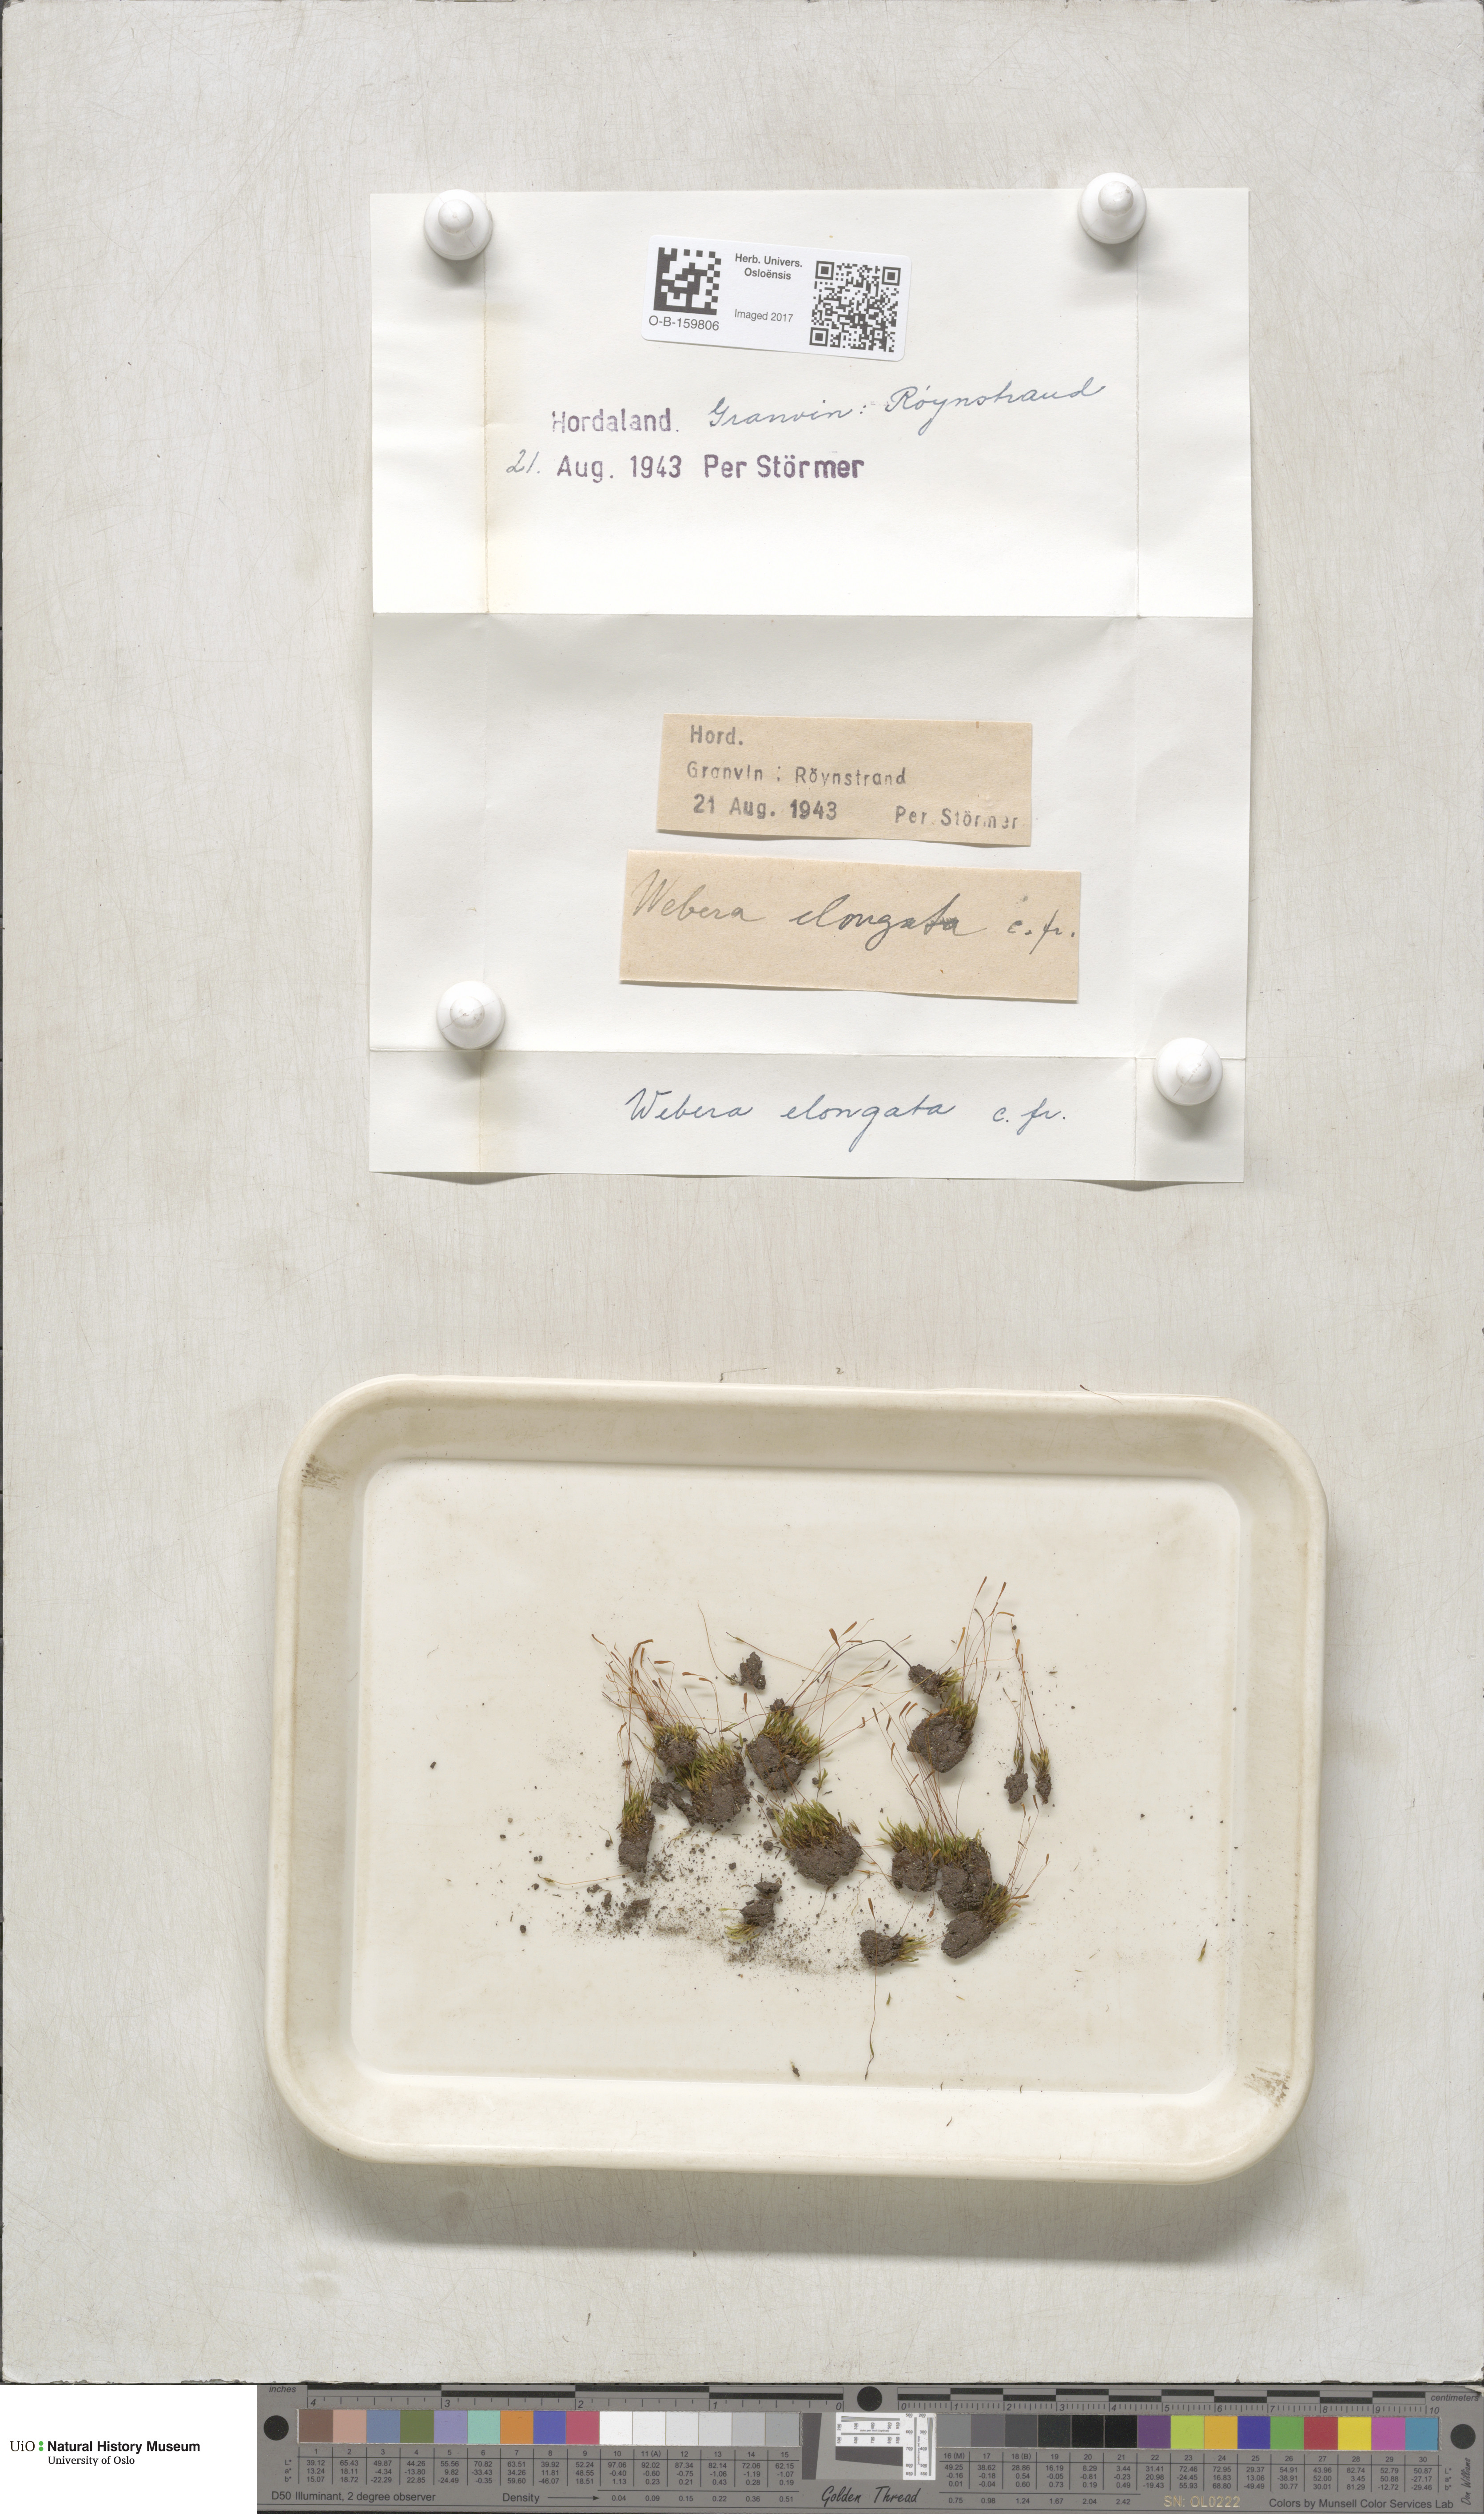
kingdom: Plantae
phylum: Bryophyta
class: Bryopsida
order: Bryales
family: Mniaceae
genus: Pohlia
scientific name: Pohlia elongata
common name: Long-fruited thread-moss
